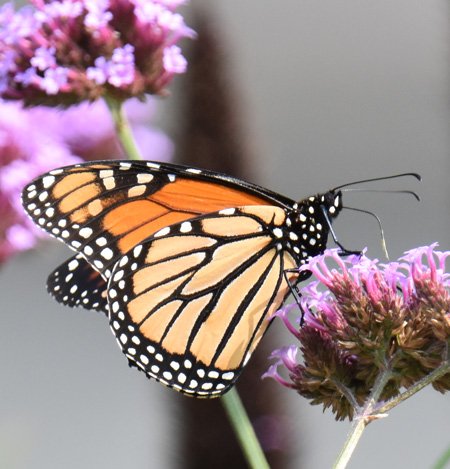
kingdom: Animalia
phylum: Arthropoda
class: Insecta
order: Lepidoptera
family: Nymphalidae
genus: Danaus
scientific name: Danaus plexippus
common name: Monarch
